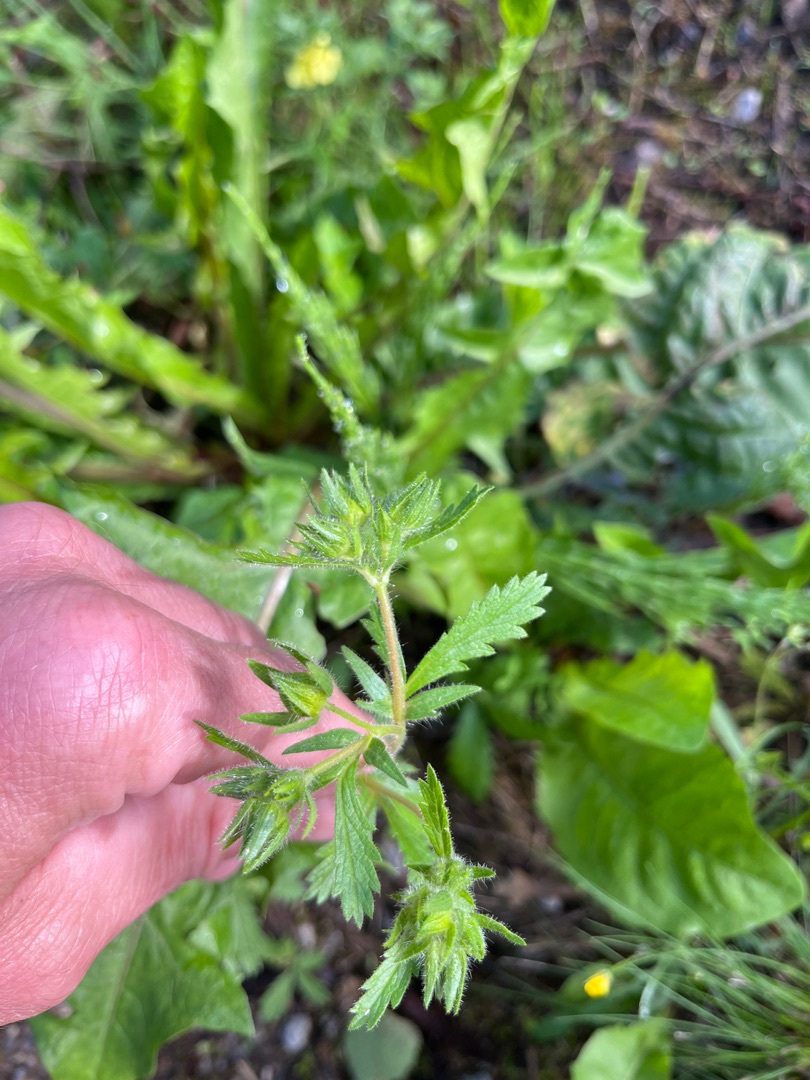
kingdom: Plantae
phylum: Tracheophyta
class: Magnoliopsida
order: Rosales
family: Rosaceae
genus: Potentilla
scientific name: Potentilla recta
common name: Rank potentil
